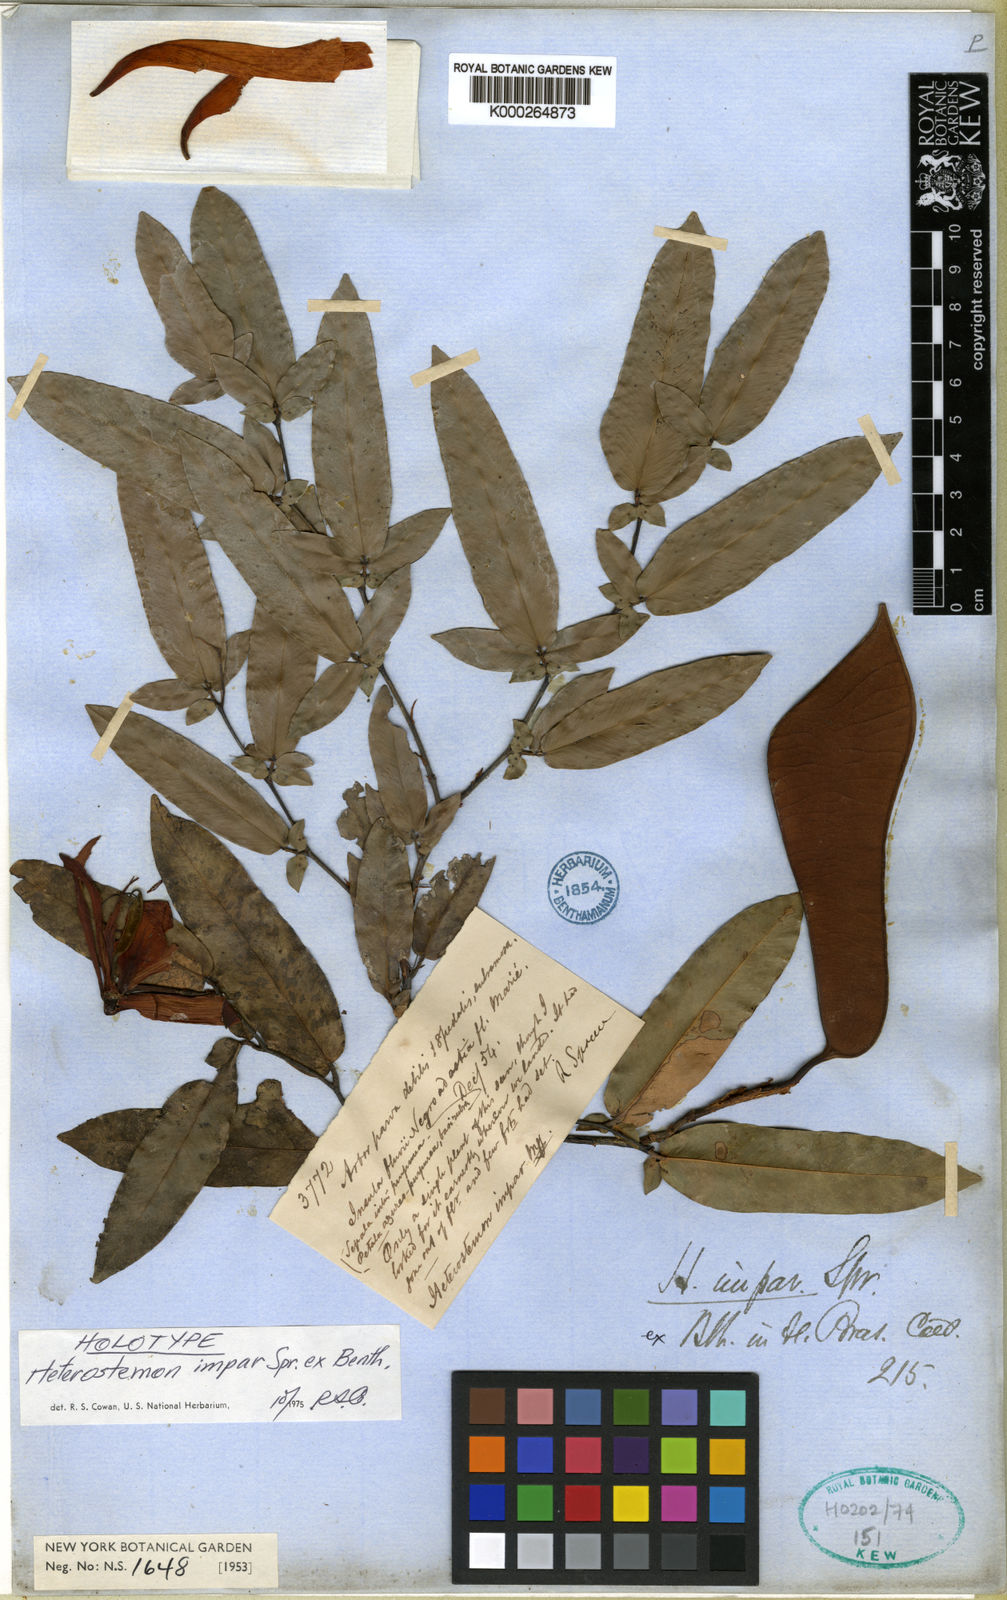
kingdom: Plantae
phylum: Tracheophyta
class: Magnoliopsida
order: Fabales
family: Fabaceae
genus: Heterostemon
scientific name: Heterostemon impar
